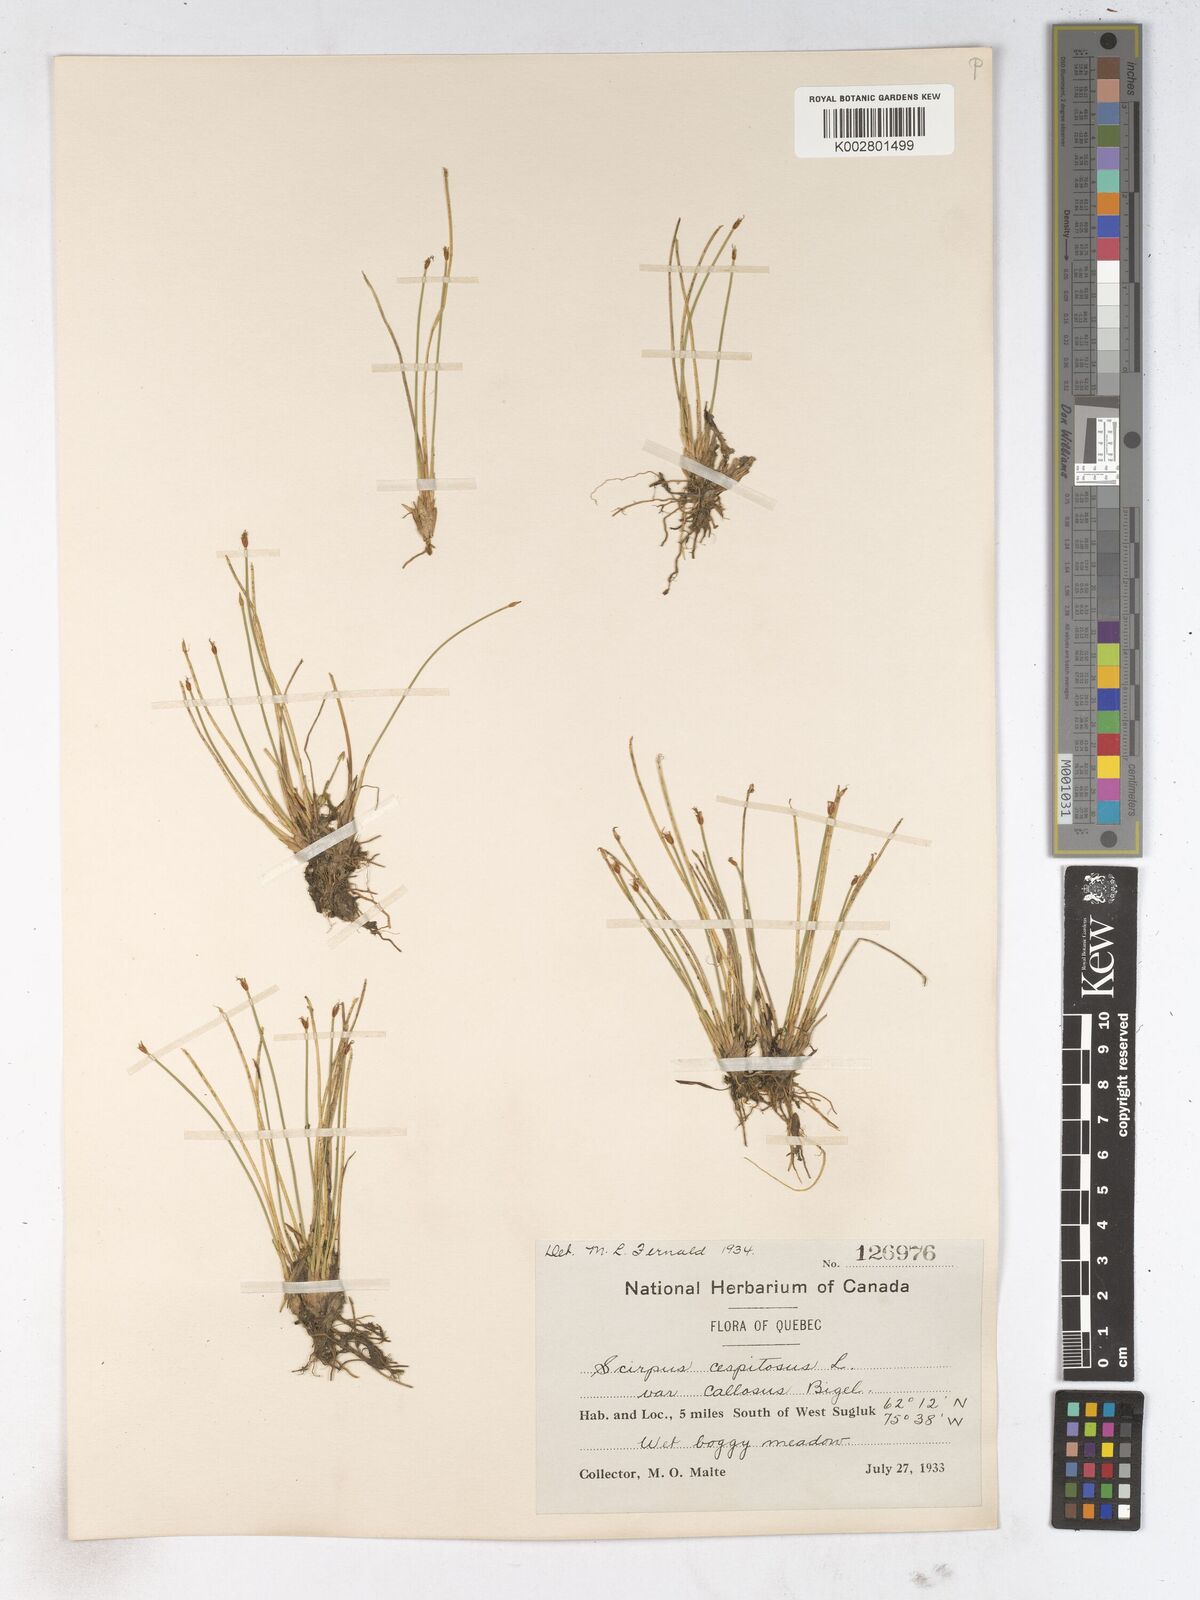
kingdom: Plantae
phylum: Tracheophyta
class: Liliopsida
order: Poales
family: Cyperaceae
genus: Trichophorum
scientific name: Trichophorum cespitosum
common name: Cespitose bulrush
